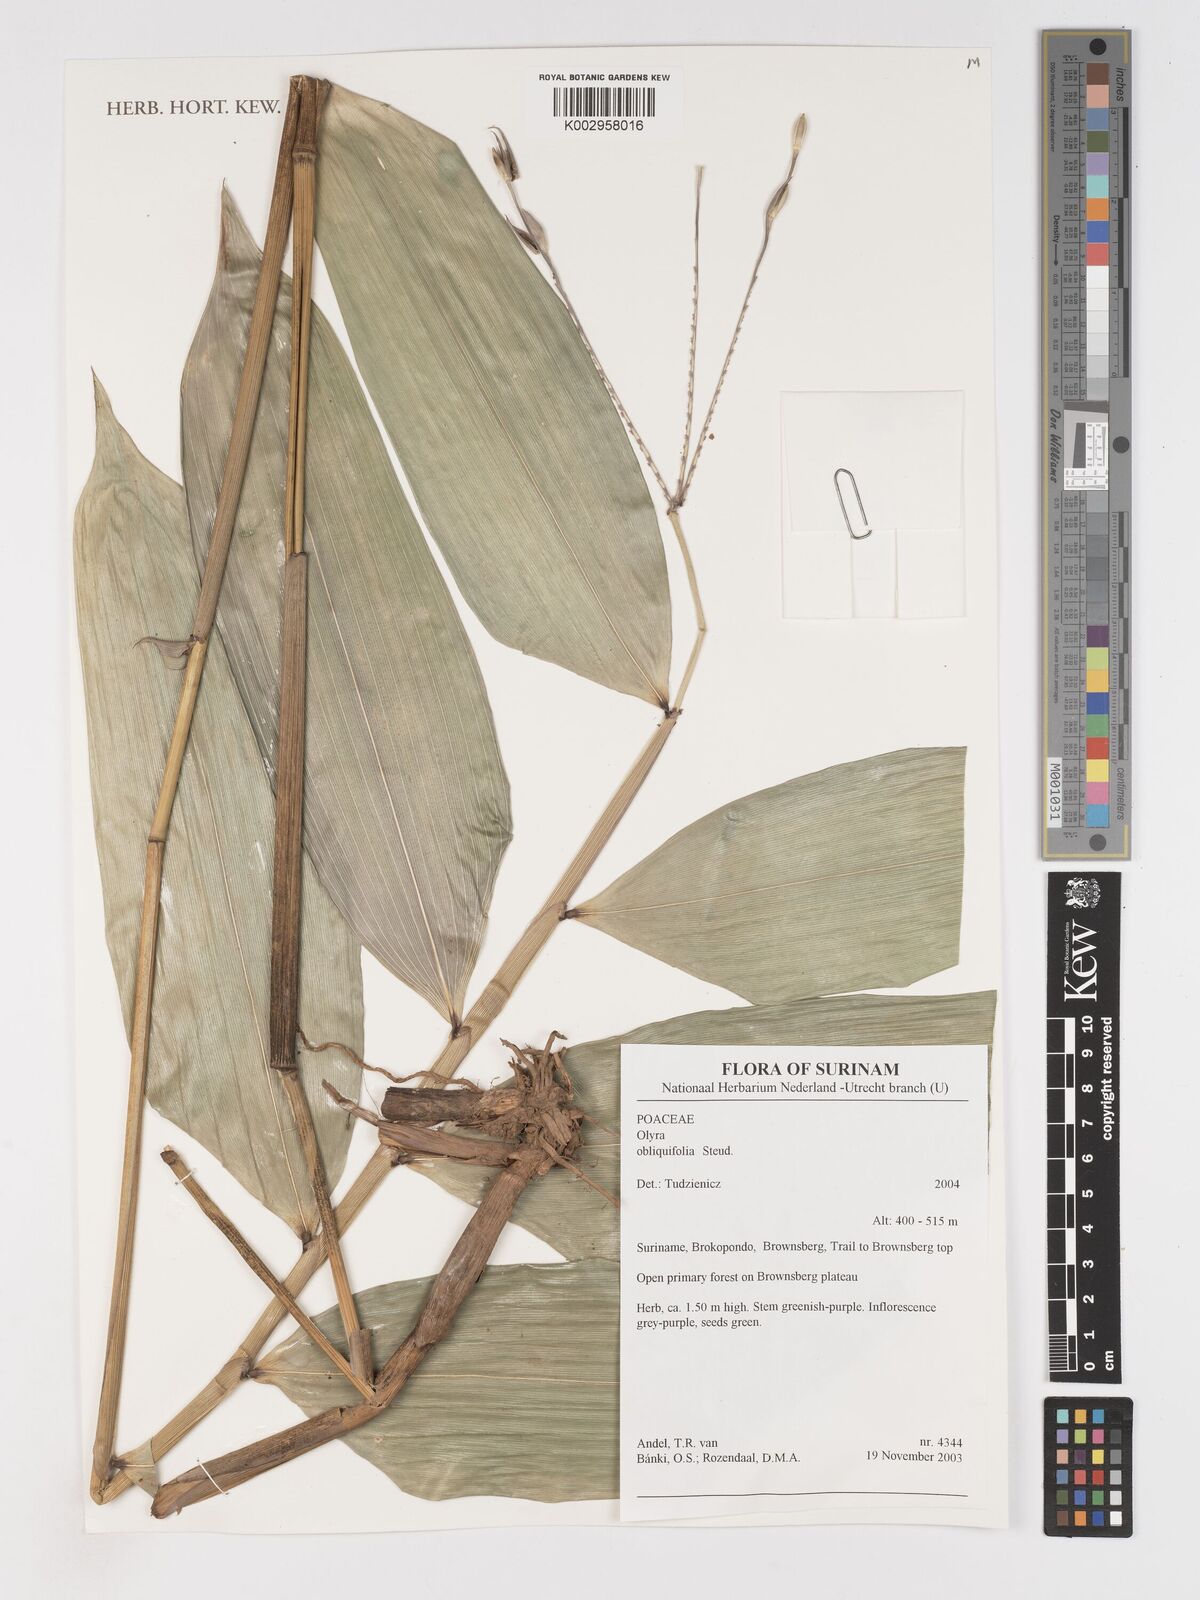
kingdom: Plantae
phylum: Tracheophyta
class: Liliopsida
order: Poales
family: Poaceae
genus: Olyra
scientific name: Olyra obliquifolia
